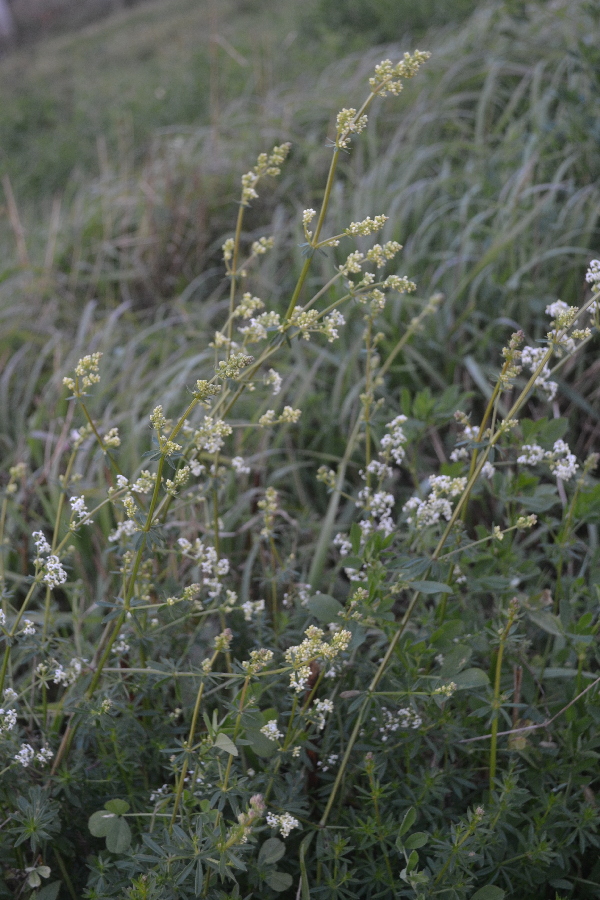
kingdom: Plantae
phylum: Tracheophyta
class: Magnoliopsida
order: Gentianales
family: Rubiaceae
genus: Galium
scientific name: Galium mollugo
